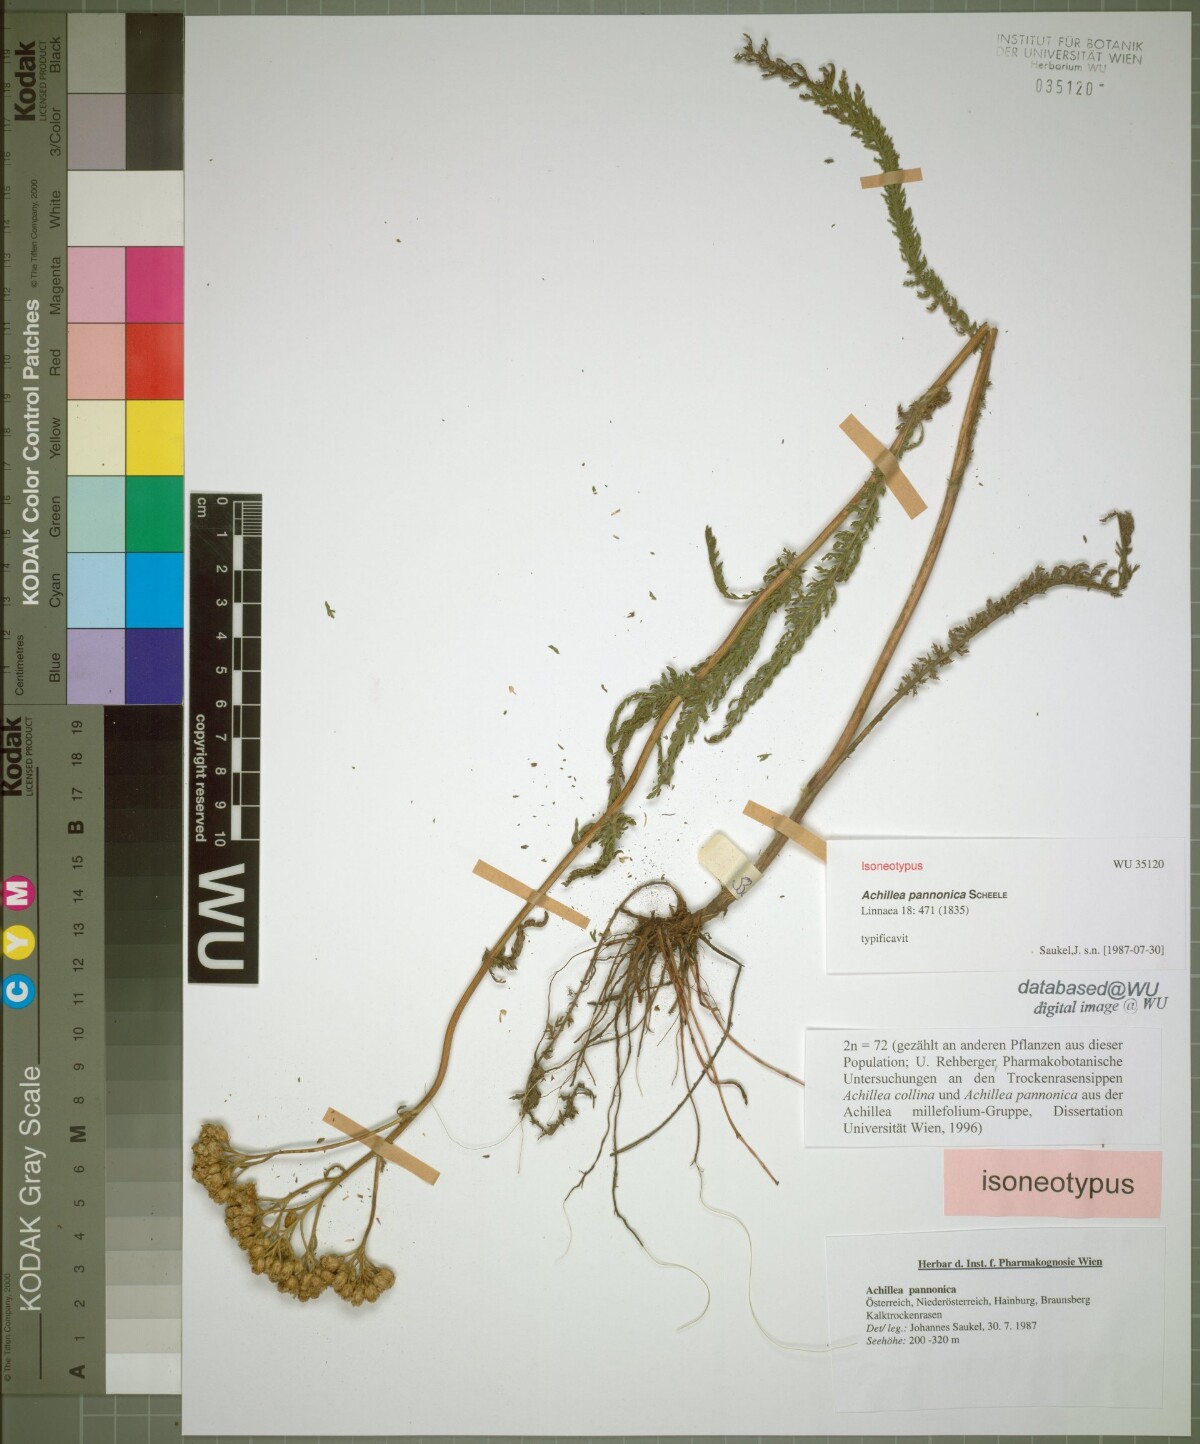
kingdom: Plantae
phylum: Tracheophyta
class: Magnoliopsida
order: Asterales
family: Asteraceae
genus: Achillea
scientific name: Achillea pannonica
